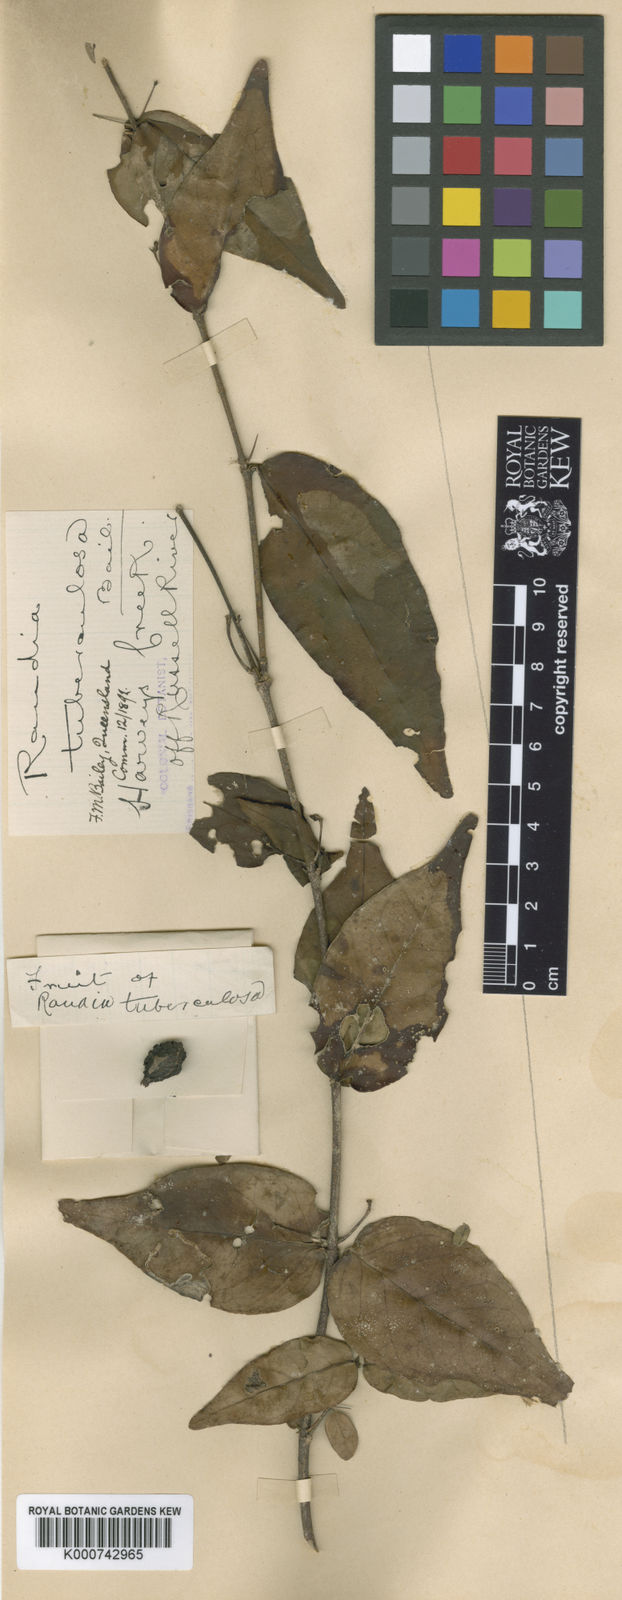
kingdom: Plantae
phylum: Tracheophyta
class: Magnoliopsida
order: Gentianales
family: Rubiaceae
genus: Randia
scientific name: Randia tuberculosa
